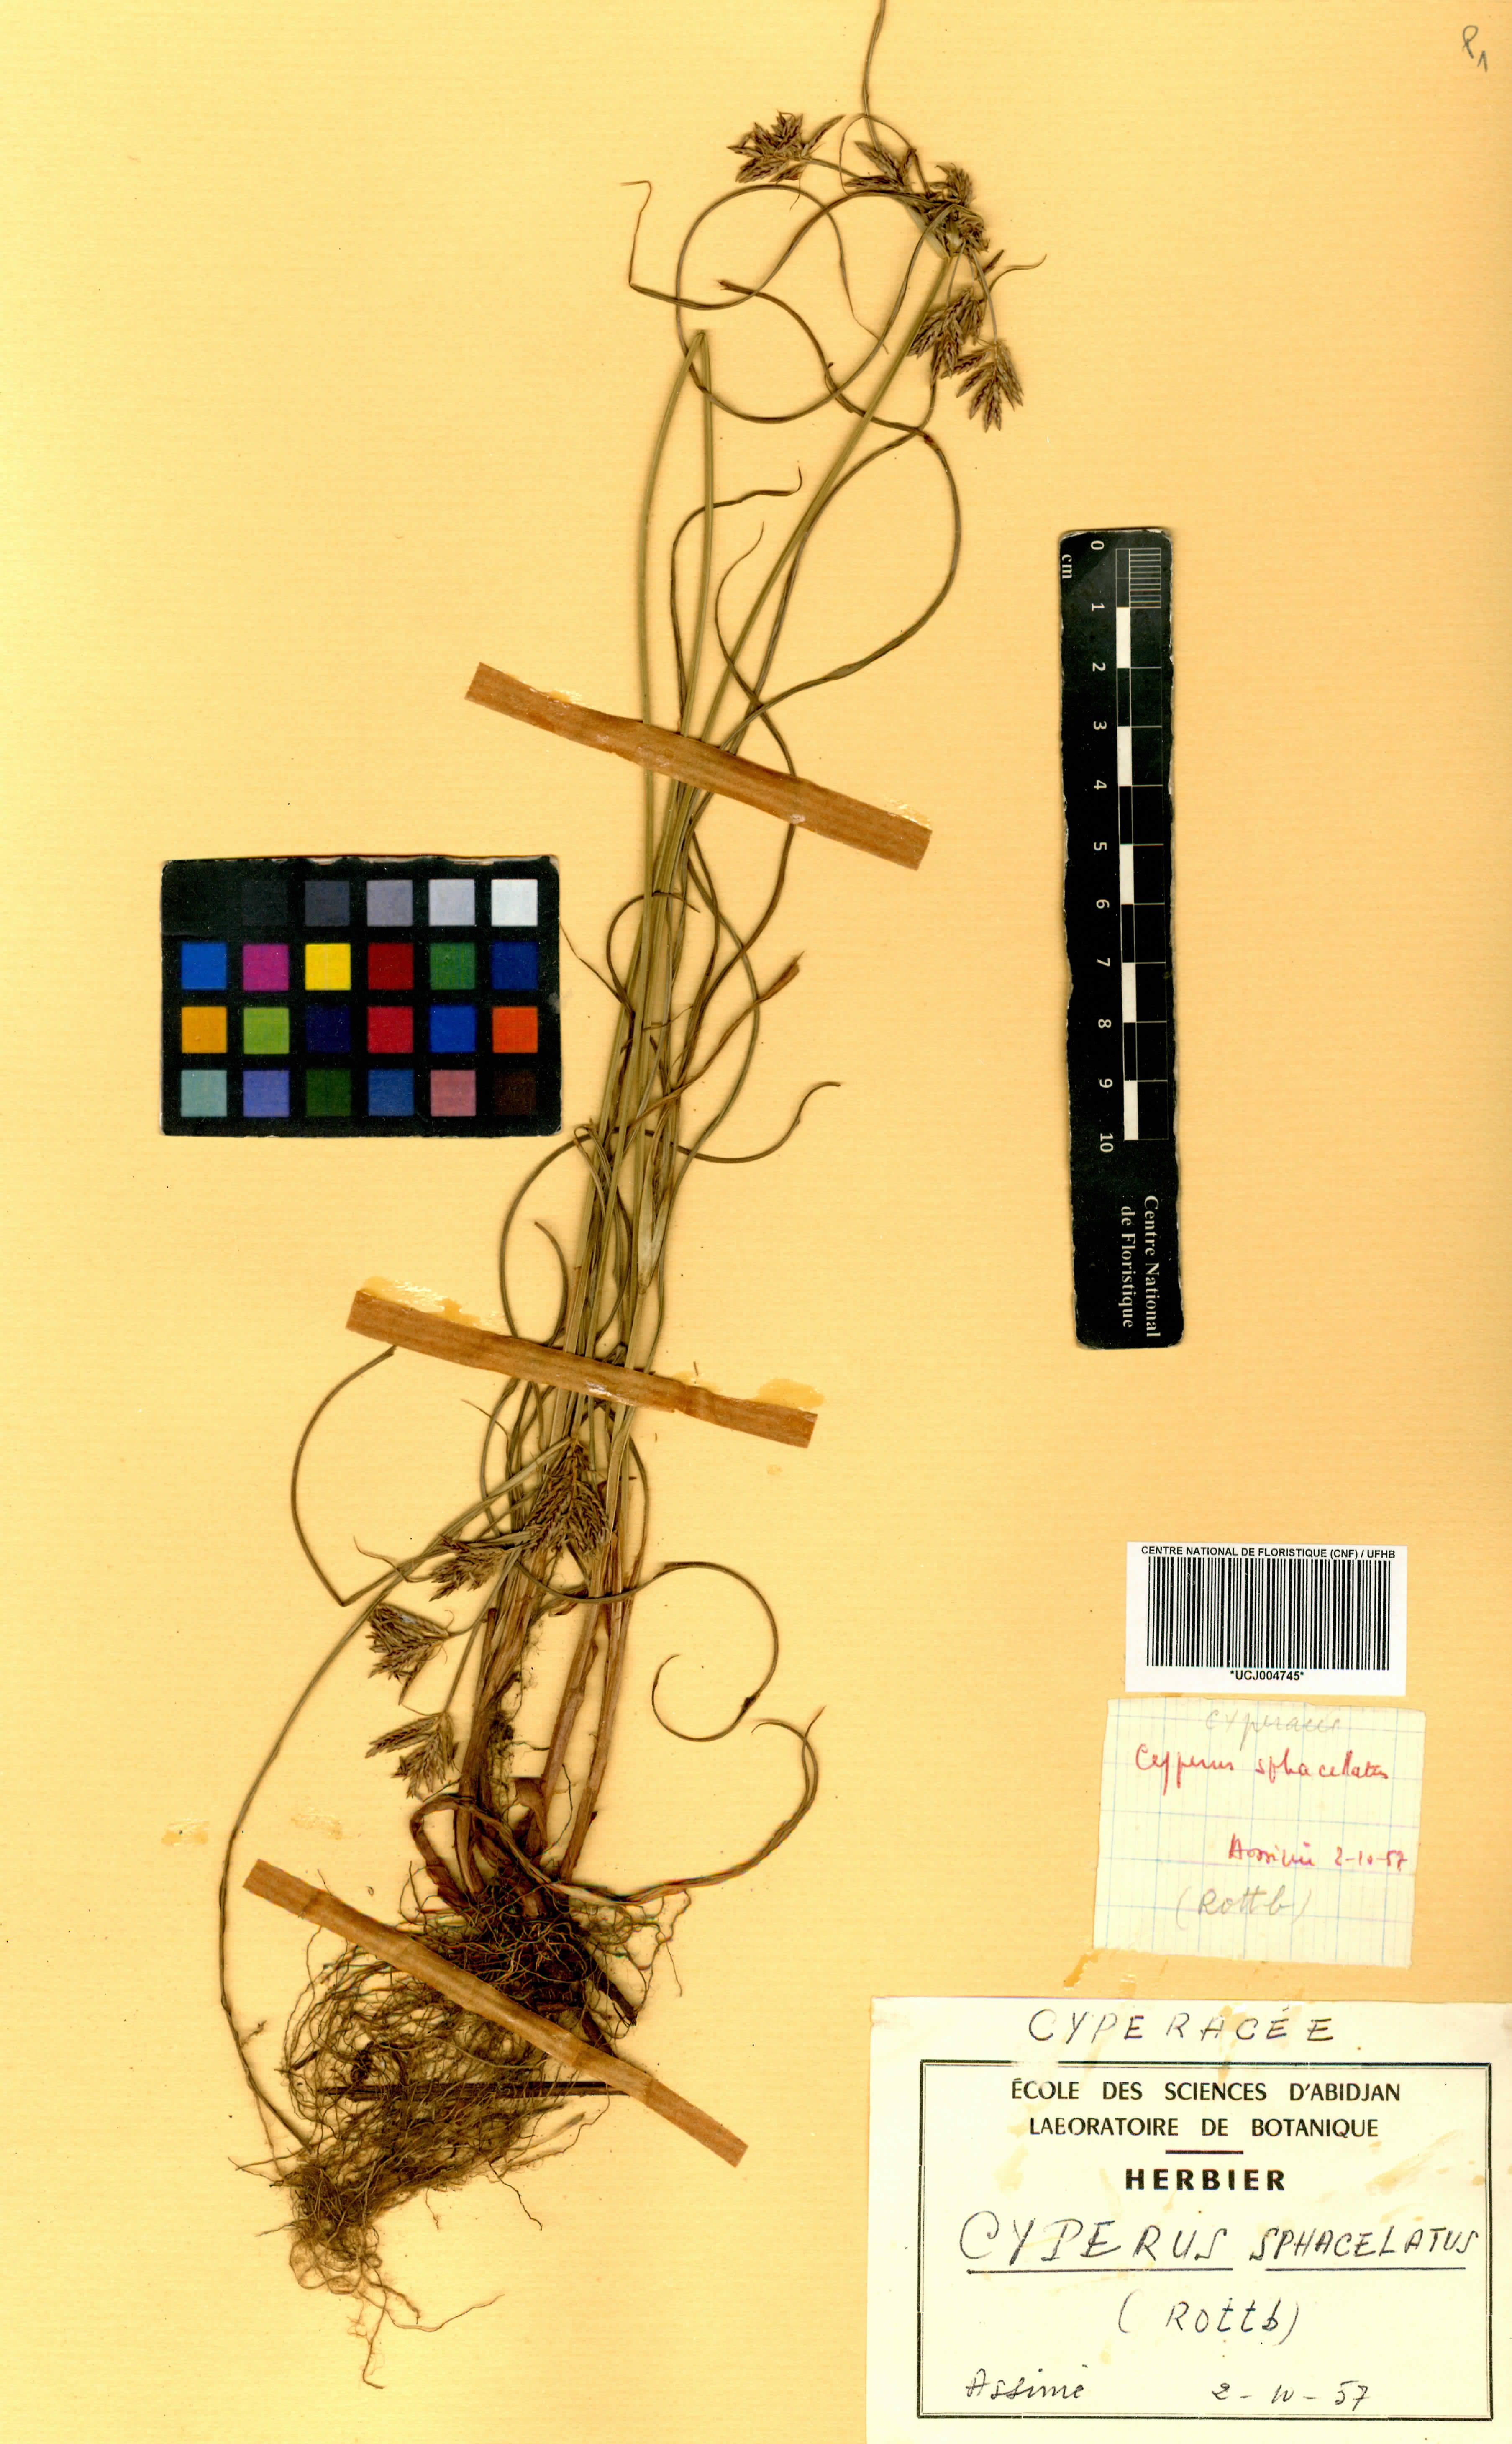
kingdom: Plantae
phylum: Tracheophyta
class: Liliopsida
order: Poales
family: Cyperaceae
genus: Cyperus
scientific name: Cyperus sphacelatus
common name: Roadside flatsedge
